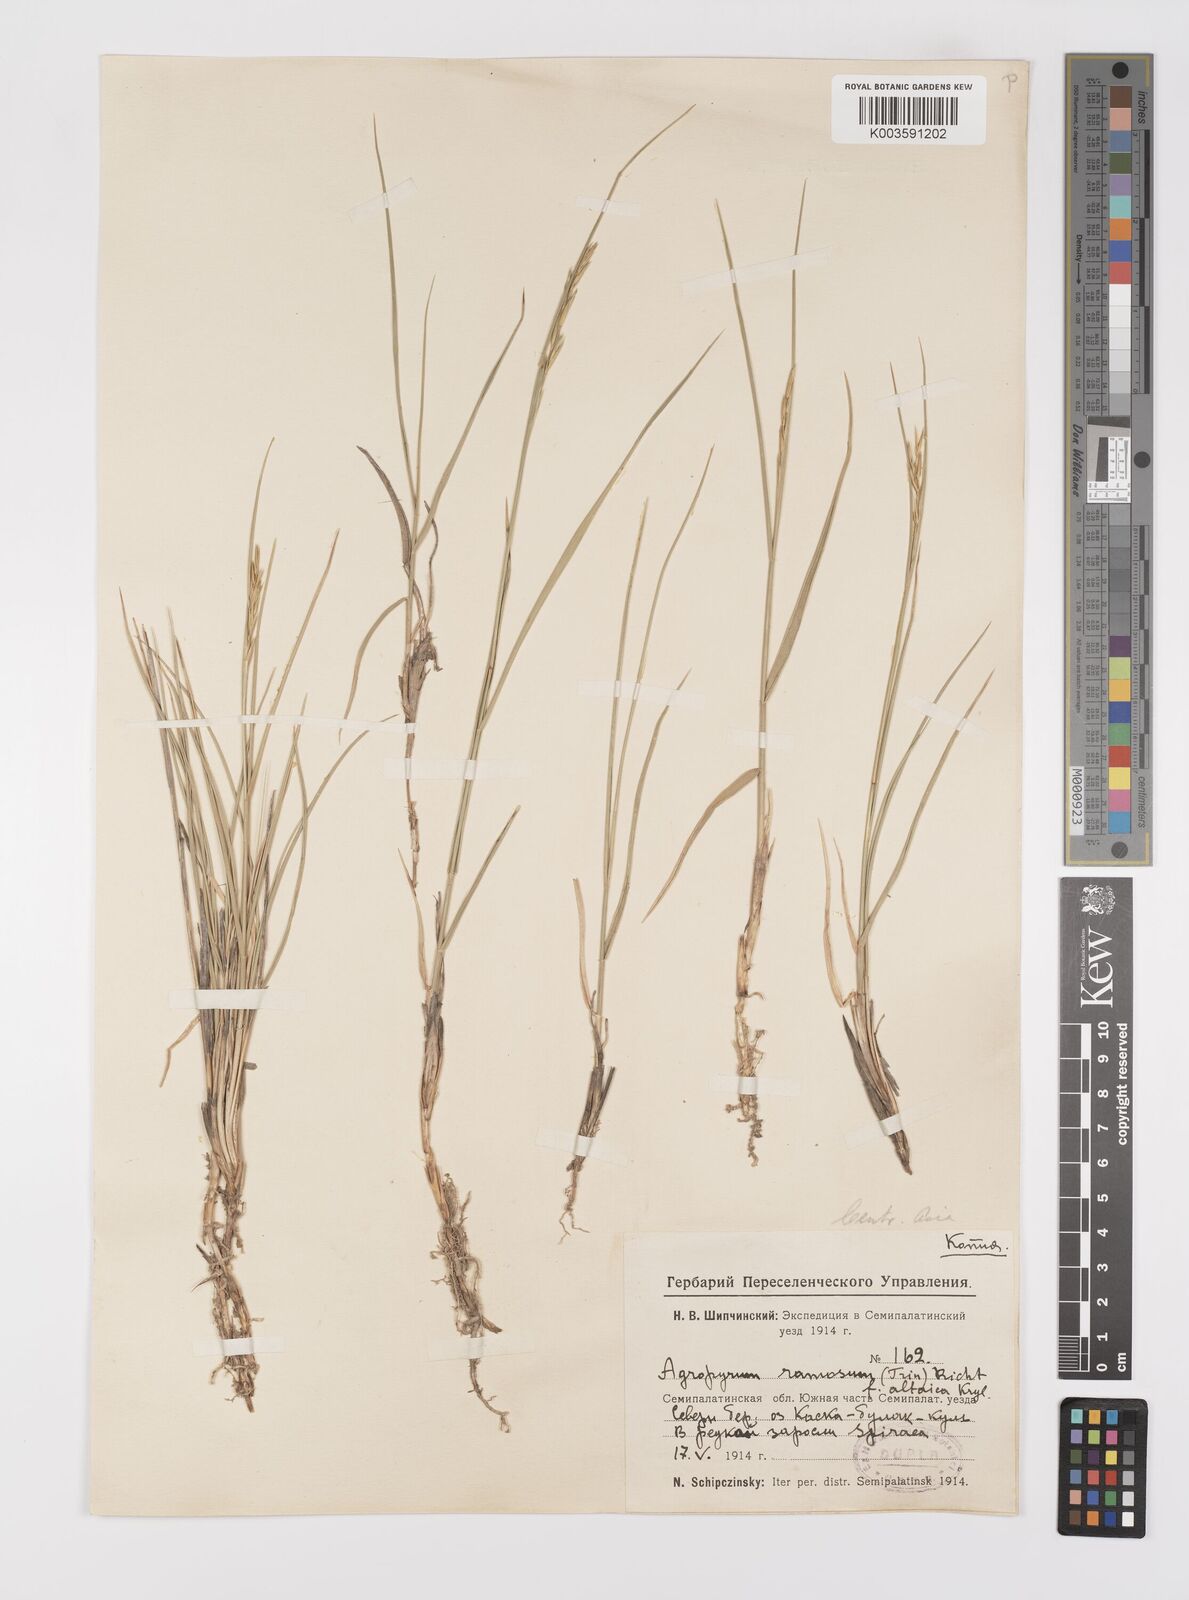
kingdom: Plantae
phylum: Tracheophyta
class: Liliopsida
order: Poales
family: Poaceae
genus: Leymus
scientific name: Leymus ramosus
